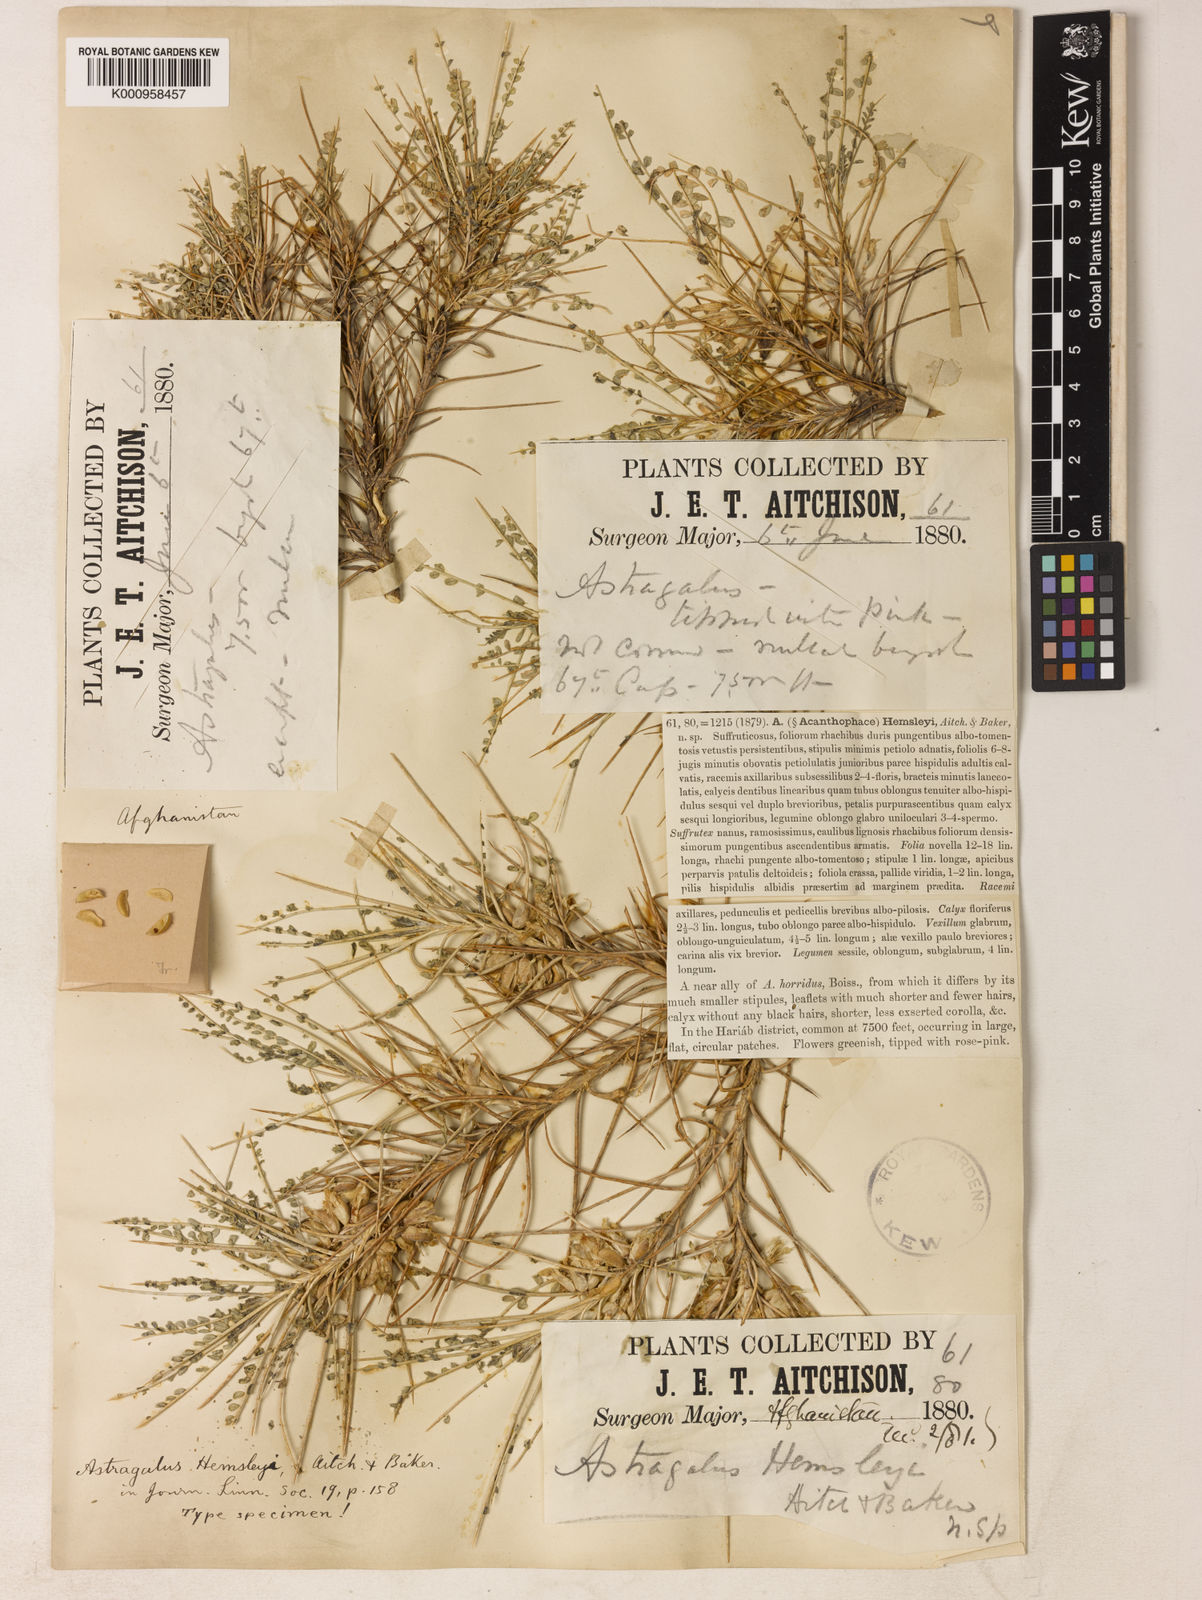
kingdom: Plantae
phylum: Tracheophyta
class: Magnoliopsida
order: Fabales
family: Fabaceae
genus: Astragalus
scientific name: Astragalus hemsleyi
